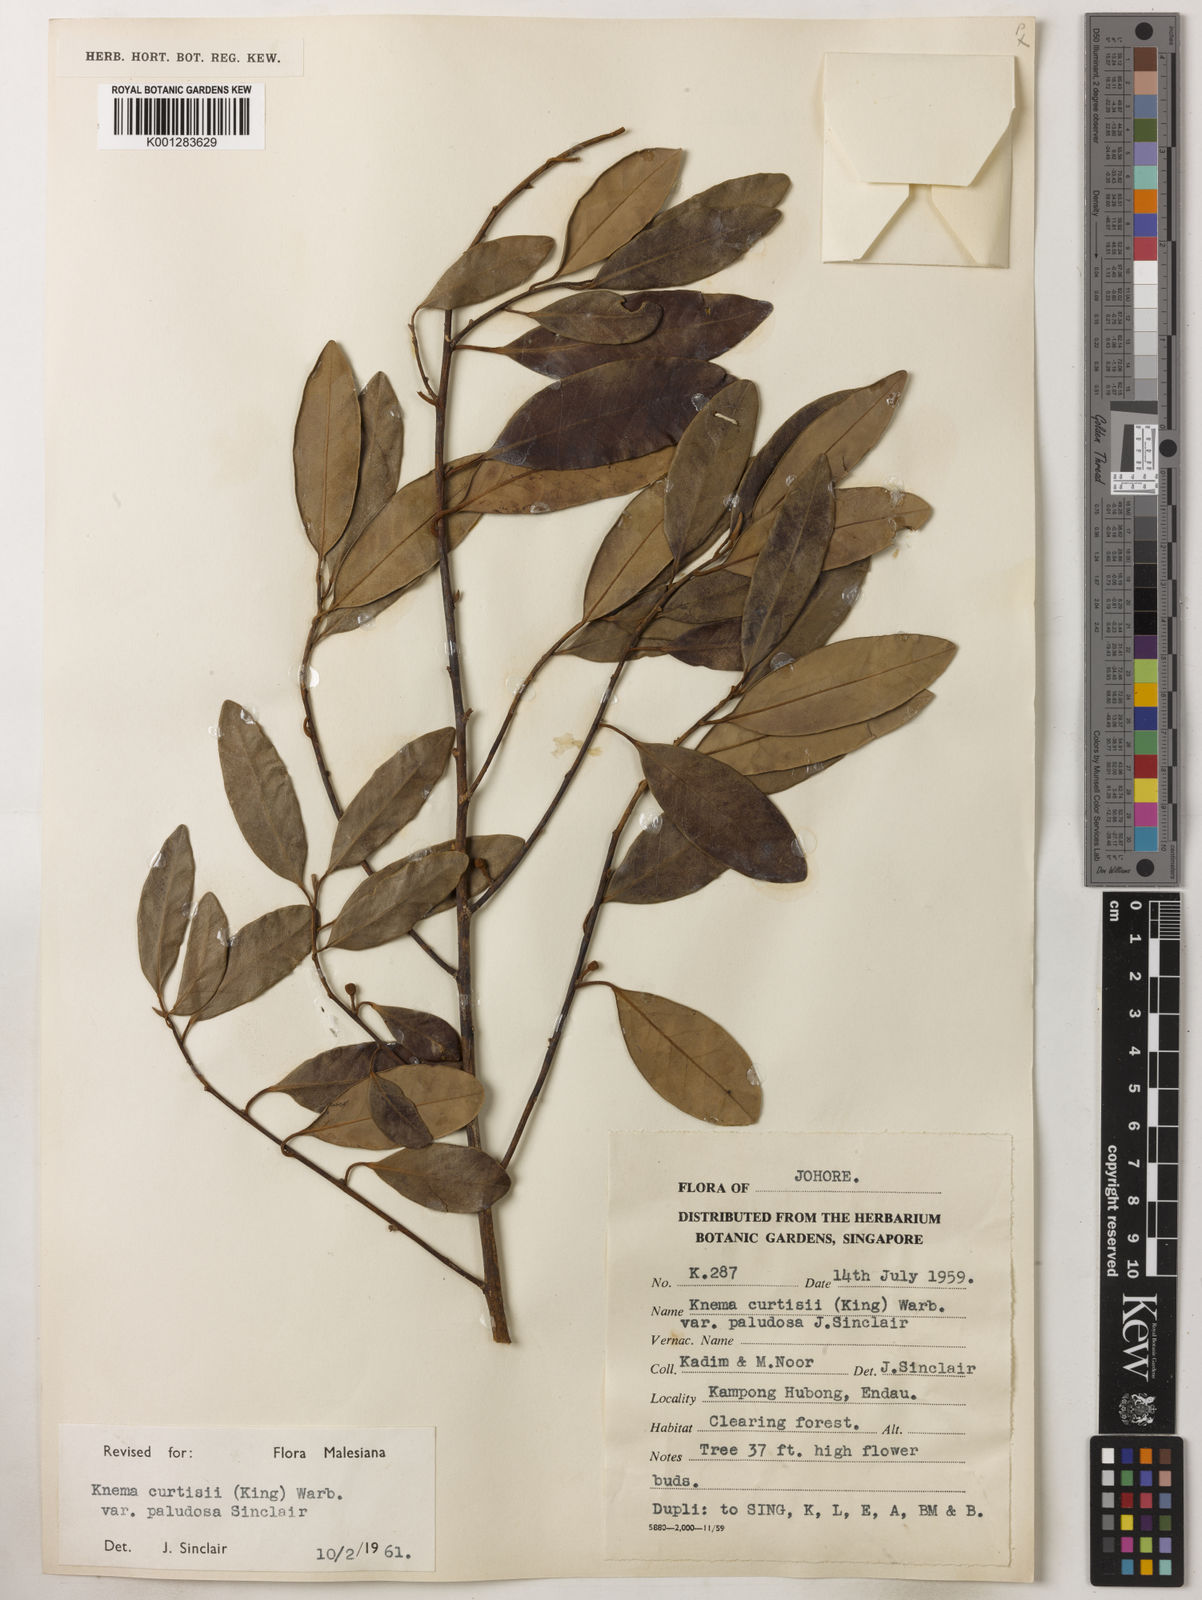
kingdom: Plantae
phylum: Tracheophyta
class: Magnoliopsida
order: Magnoliales
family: Myristicaceae
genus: Knema
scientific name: Knema
